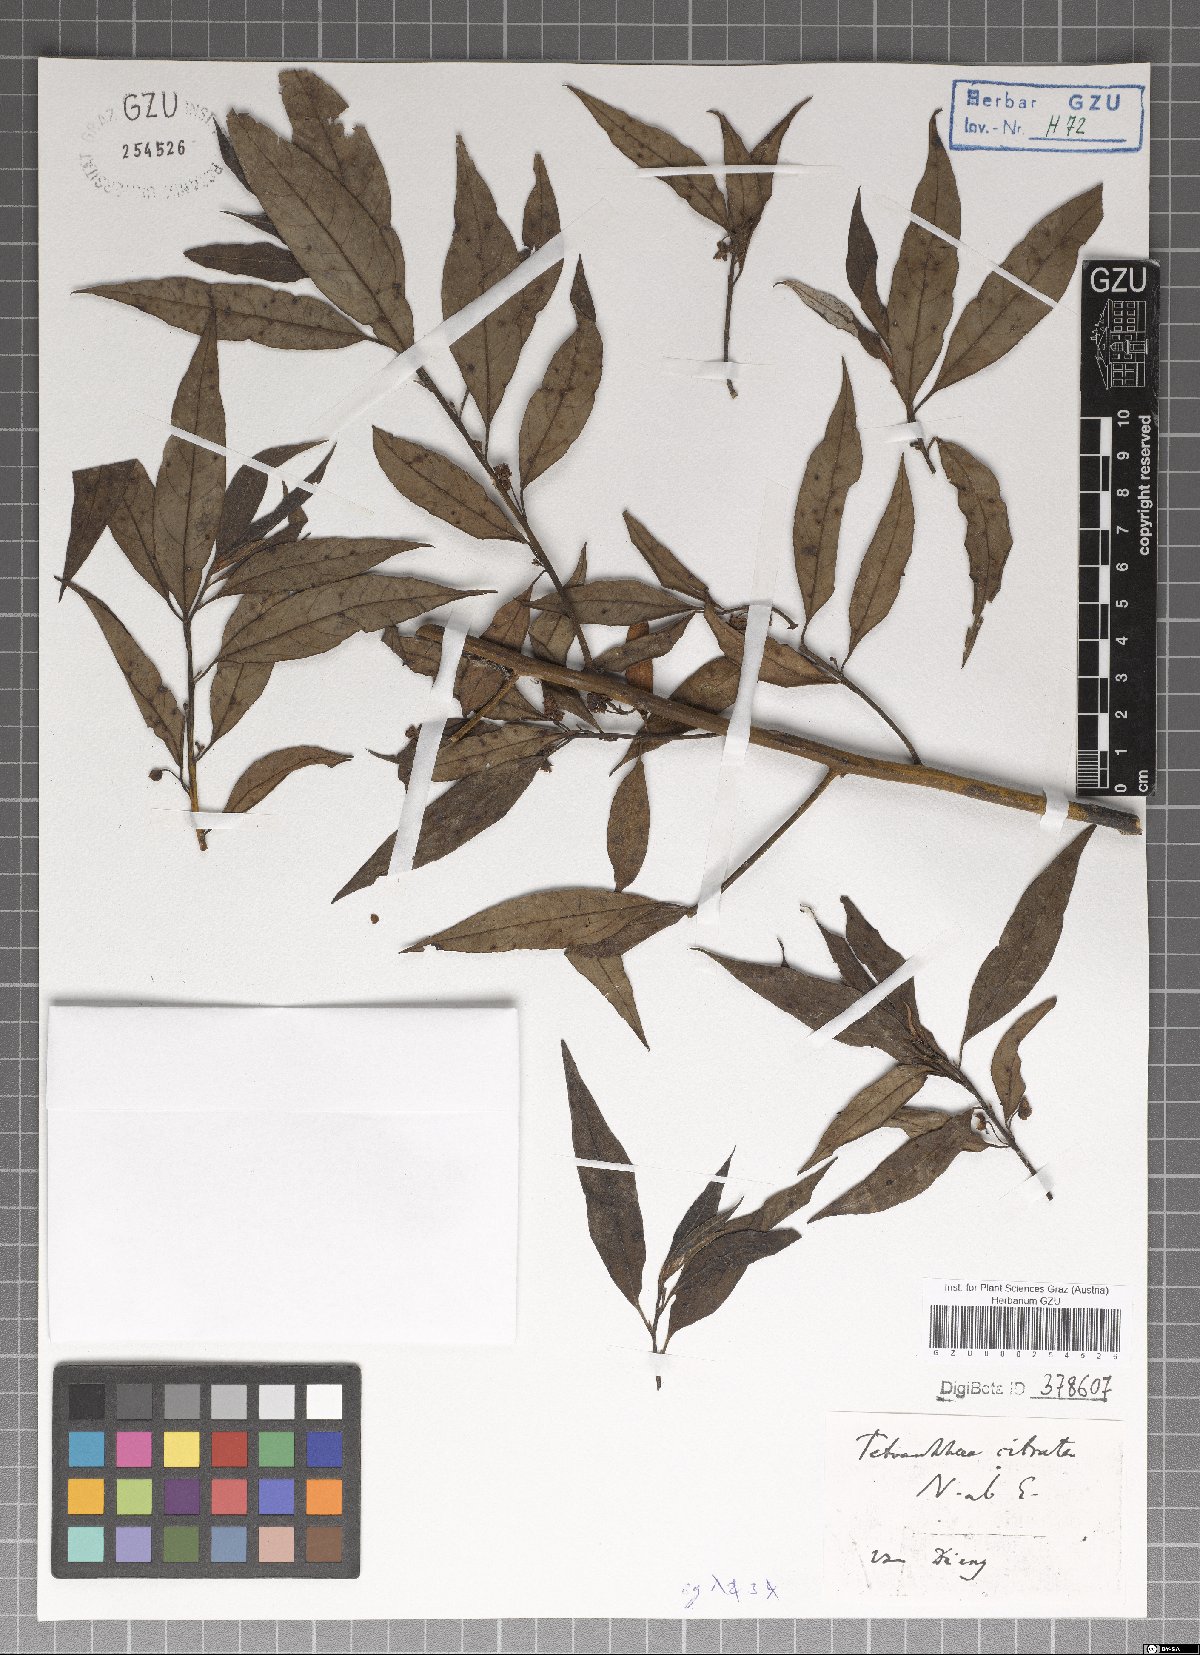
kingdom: Plantae
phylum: Tracheophyta
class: Magnoliopsida
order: Laurales
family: Lauraceae
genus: Litsea
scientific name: Litsea cubeba
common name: Mountain-pepper
